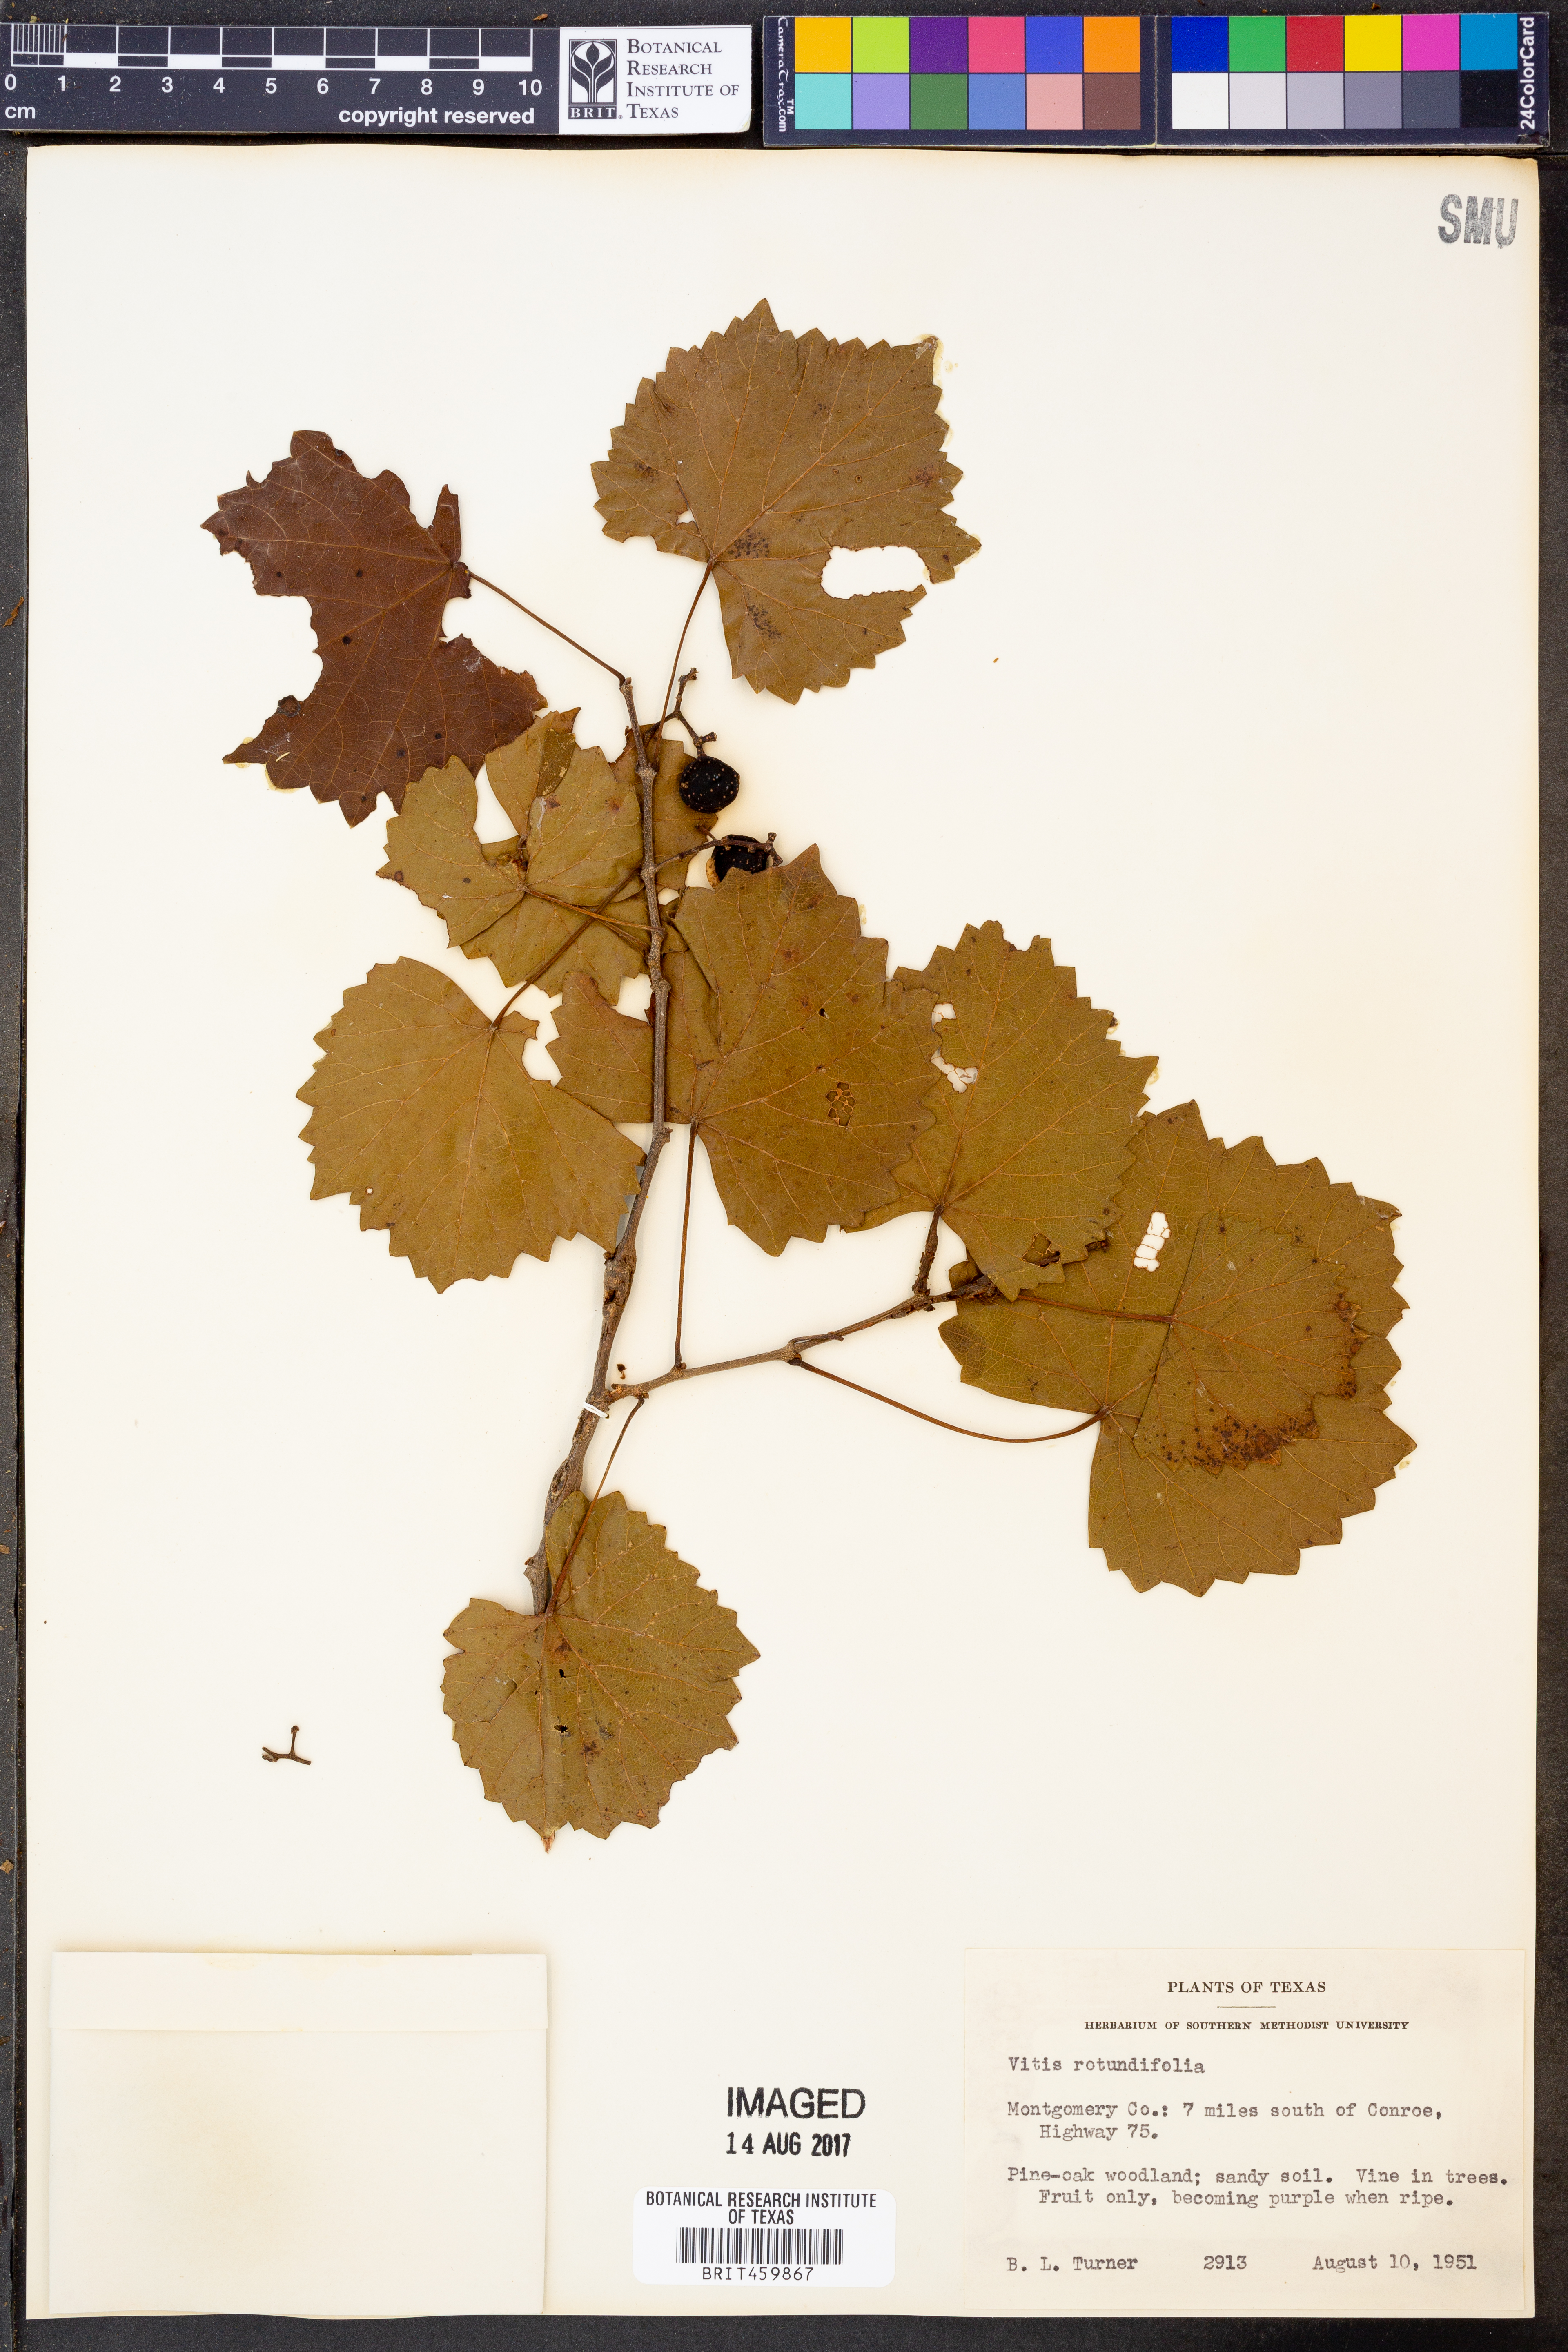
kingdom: Plantae
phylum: Tracheophyta
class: Magnoliopsida
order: Vitales
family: Vitaceae
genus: Vitis
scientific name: Vitis rotundifolia
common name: Muscadine grape
